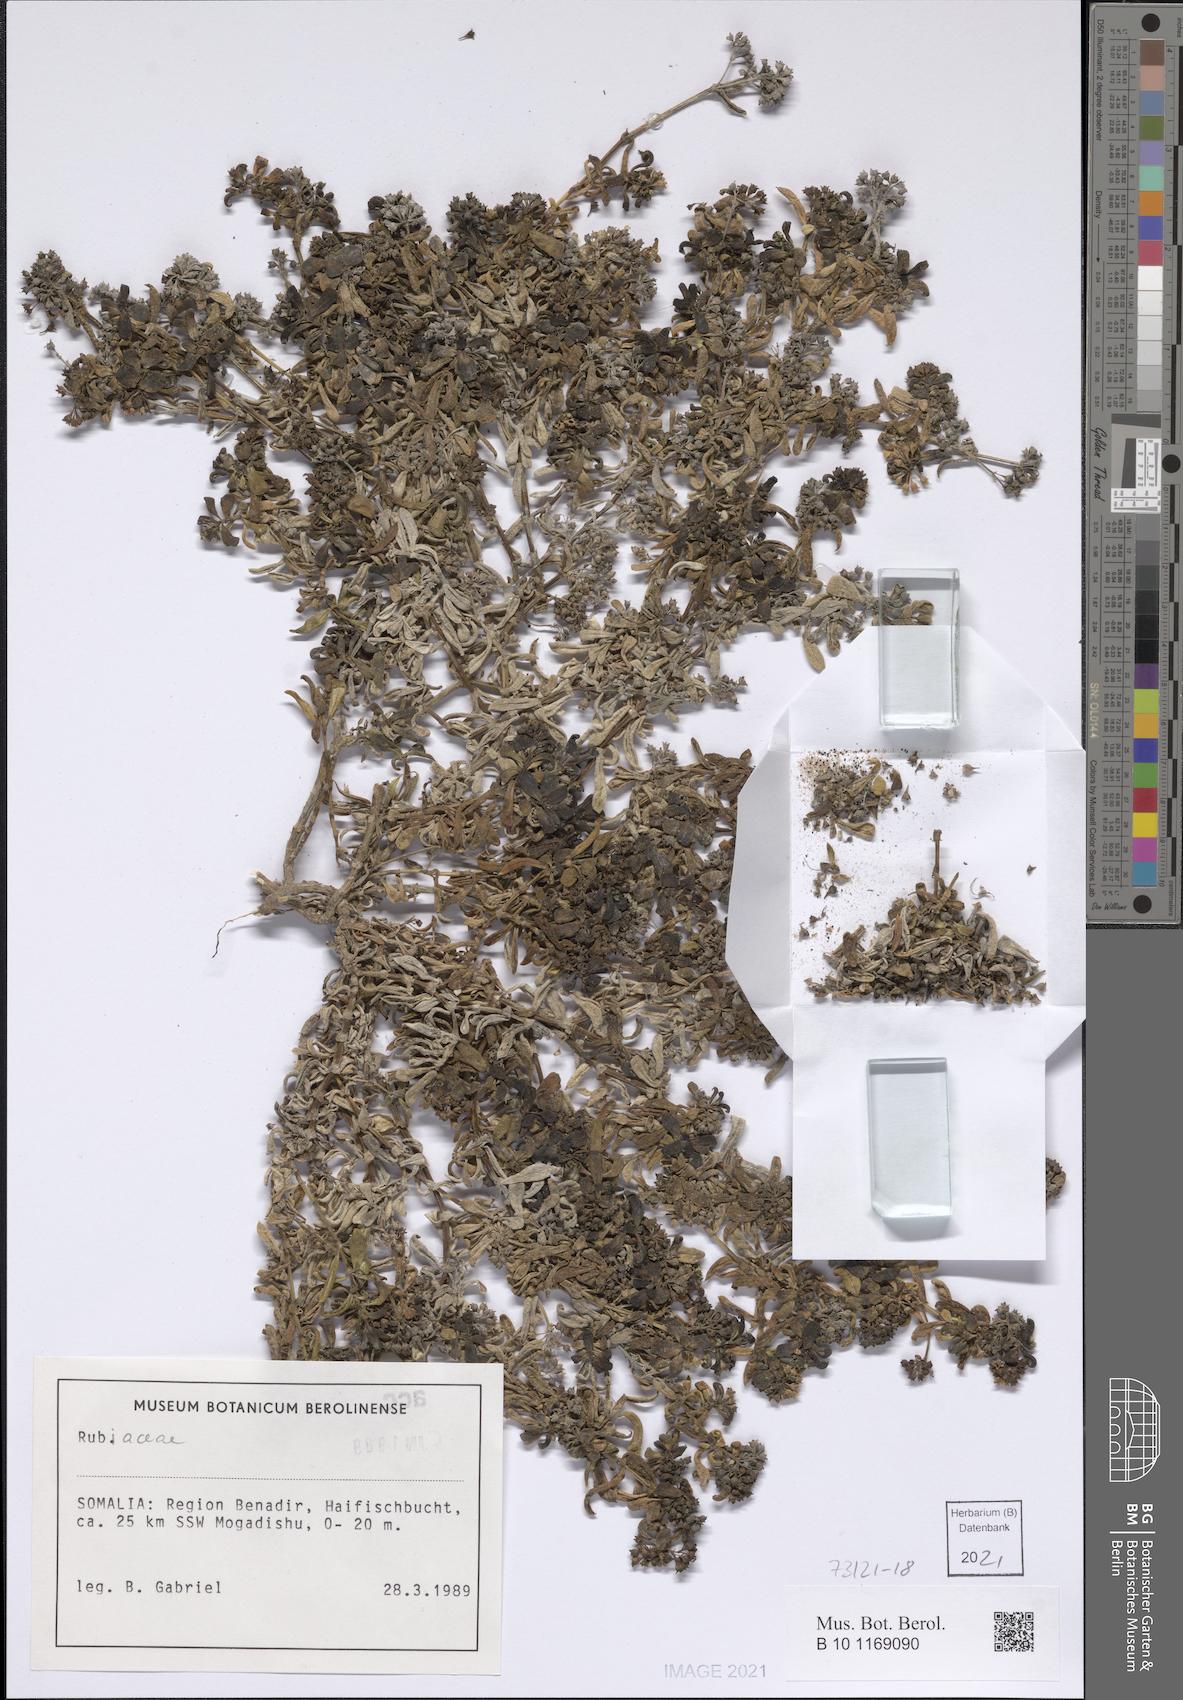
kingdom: Plantae
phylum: Tracheophyta
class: Magnoliopsida
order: Gentianales
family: Rubiaceae
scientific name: Rubiaceae
